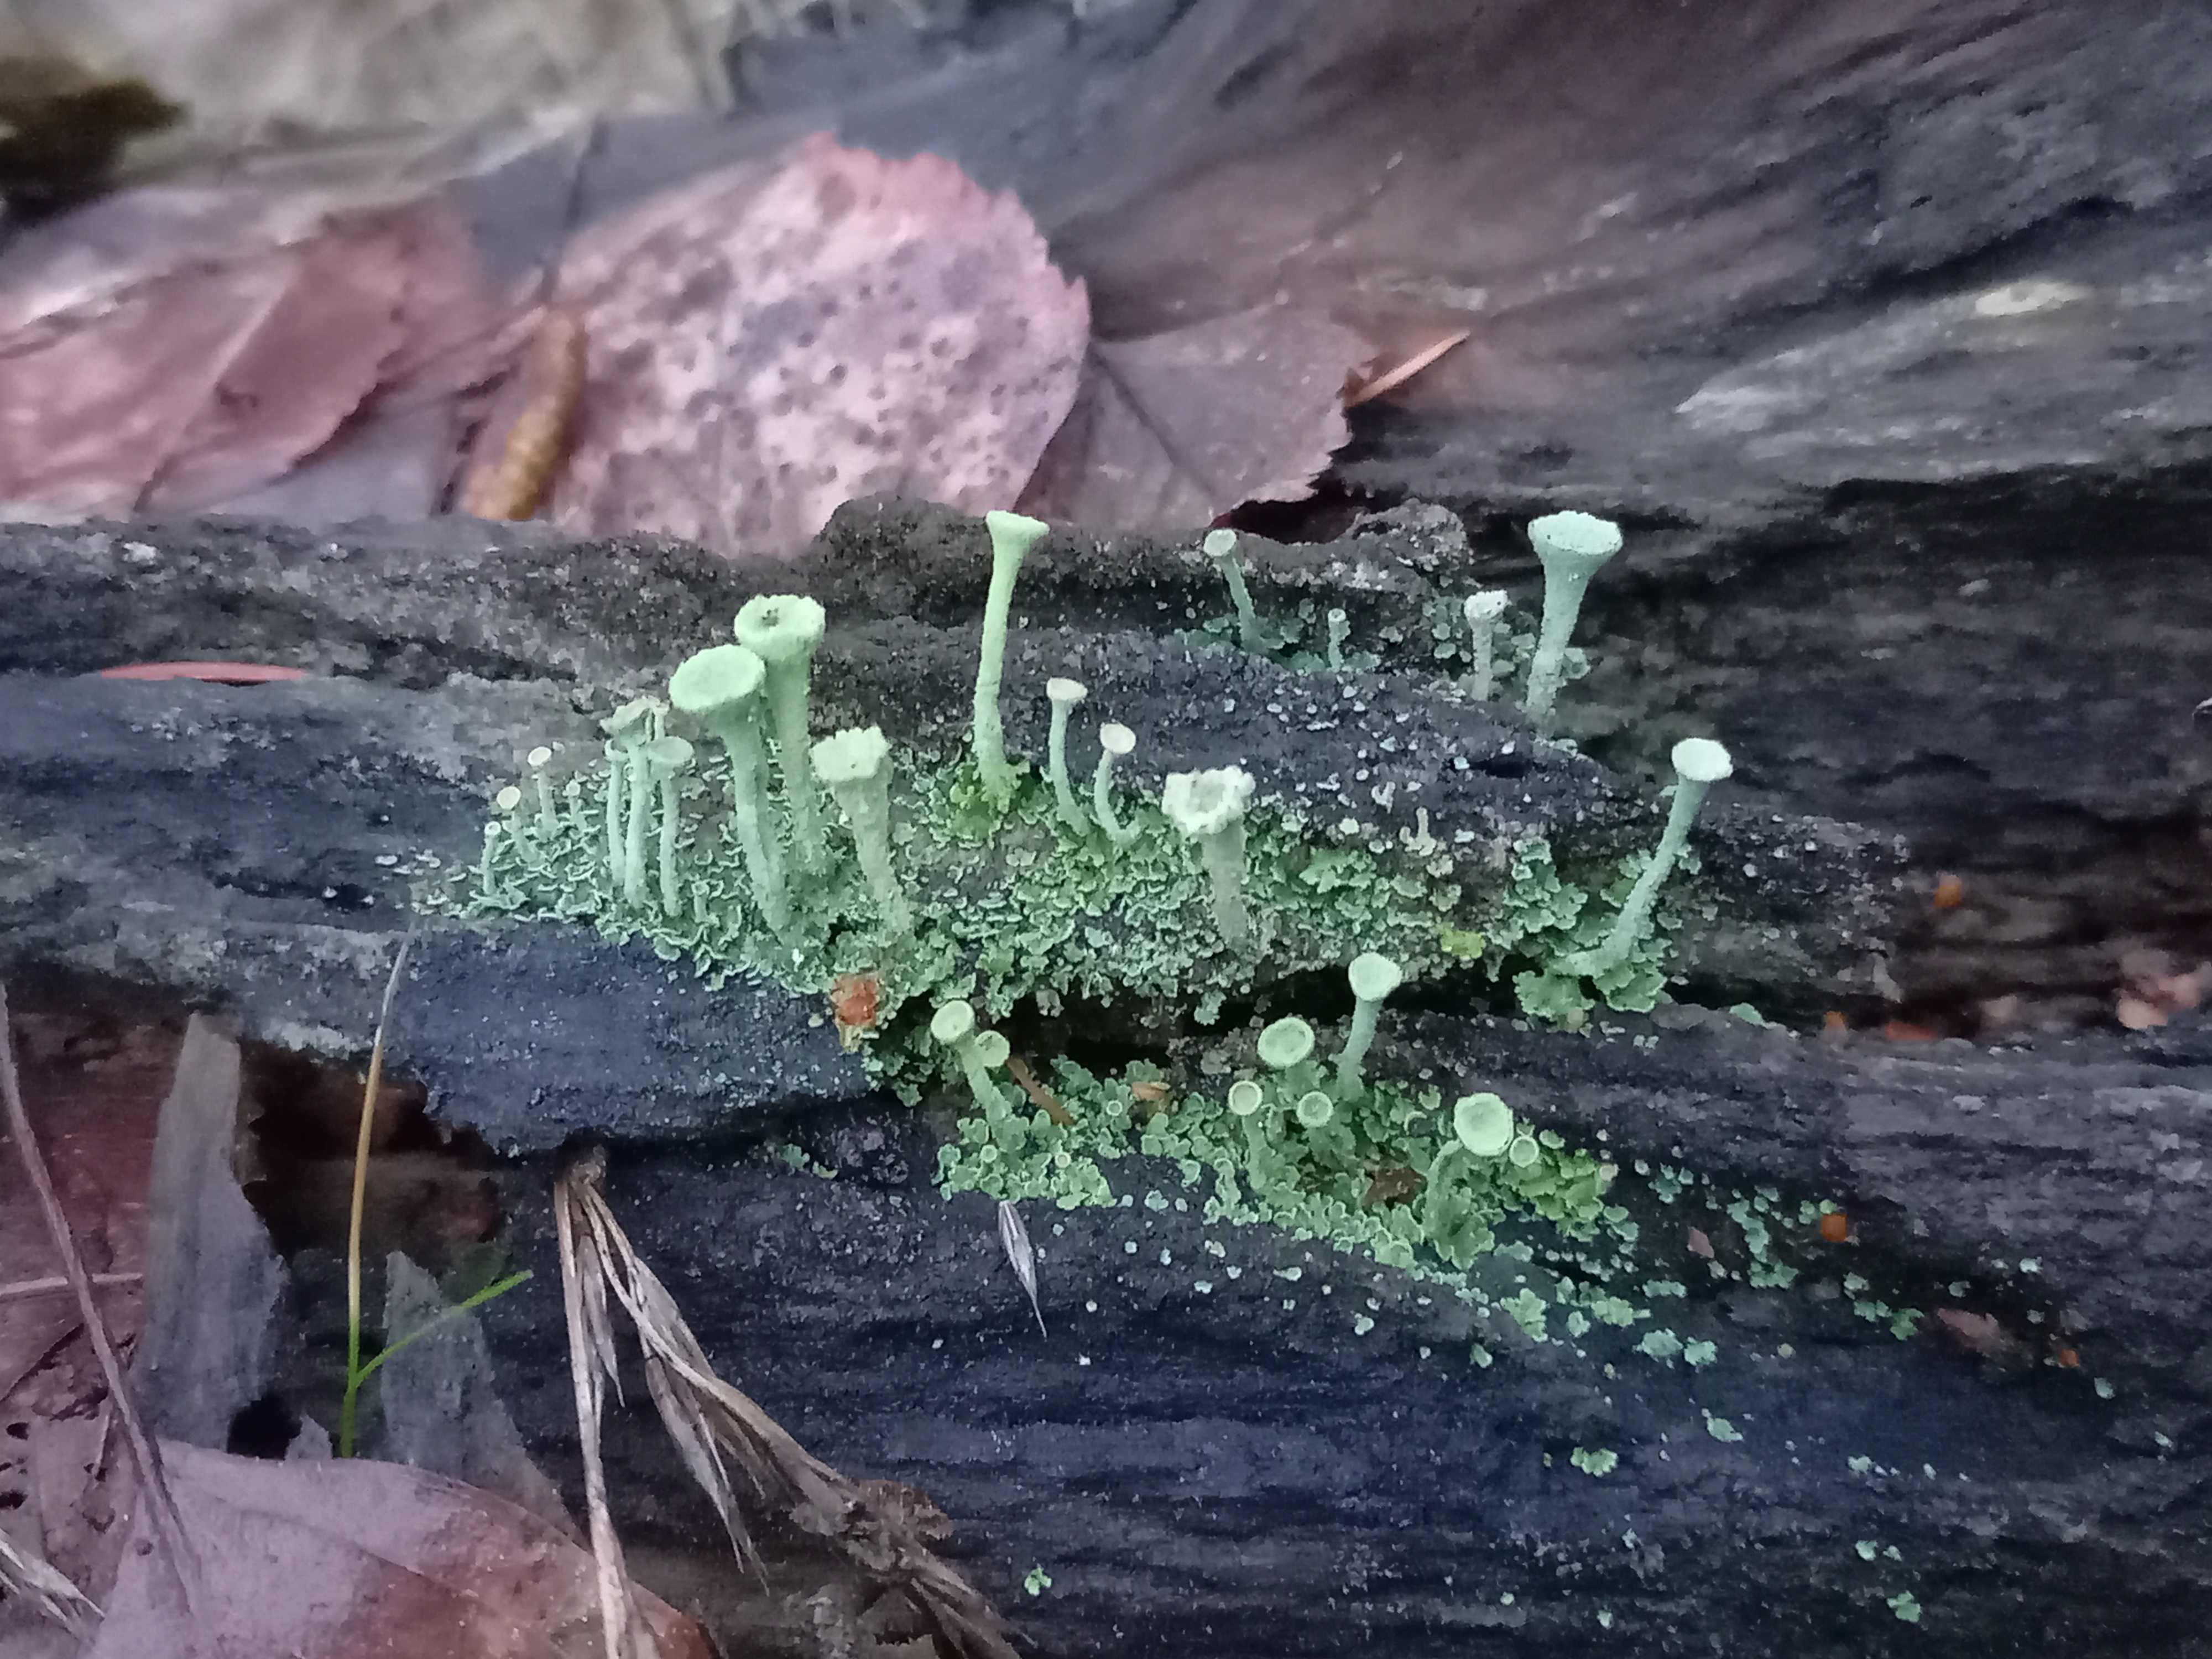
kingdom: Fungi
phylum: Ascomycota
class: Lecanoromycetes
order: Lecanorales
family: Cladoniaceae
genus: Cladonia
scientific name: Cladonia
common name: brungrøn bægerlav
